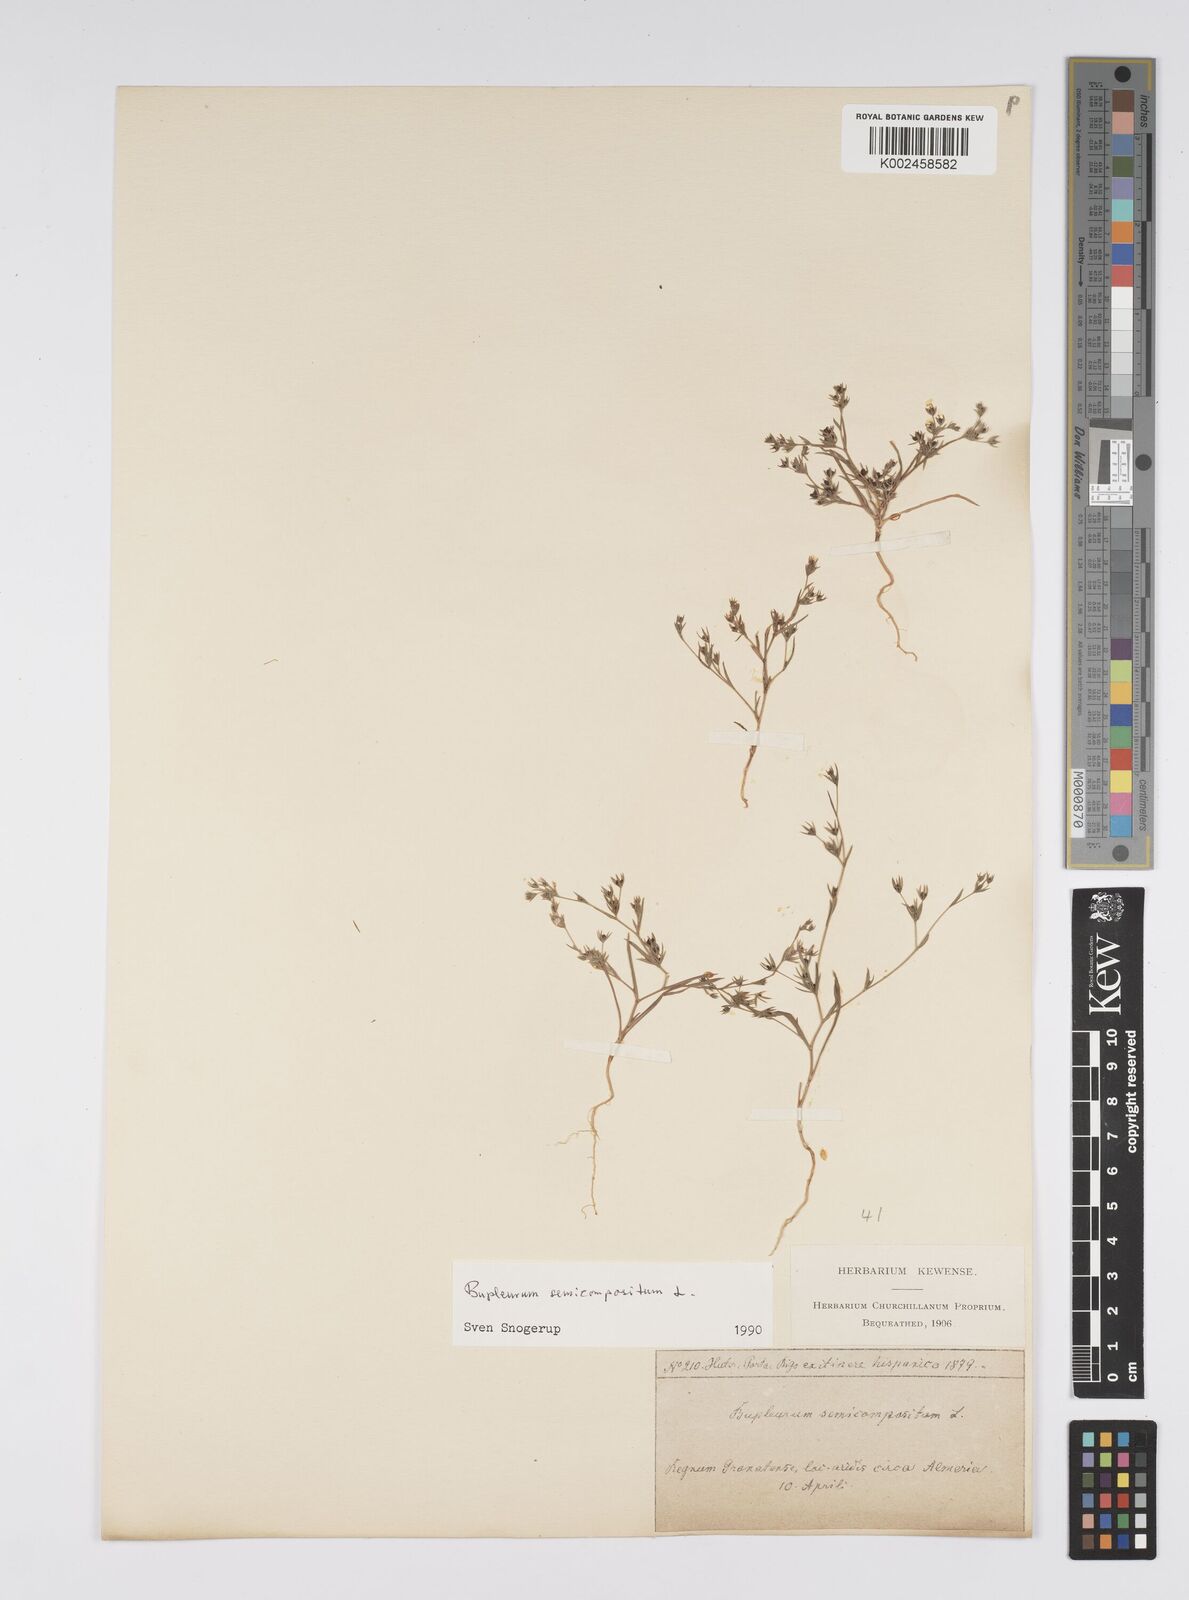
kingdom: Plantae
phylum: Tracheophyta
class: Magnoliopsida
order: Apiales
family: Apiaceae
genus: Bupleurum
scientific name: Bupleurum semicompositum
